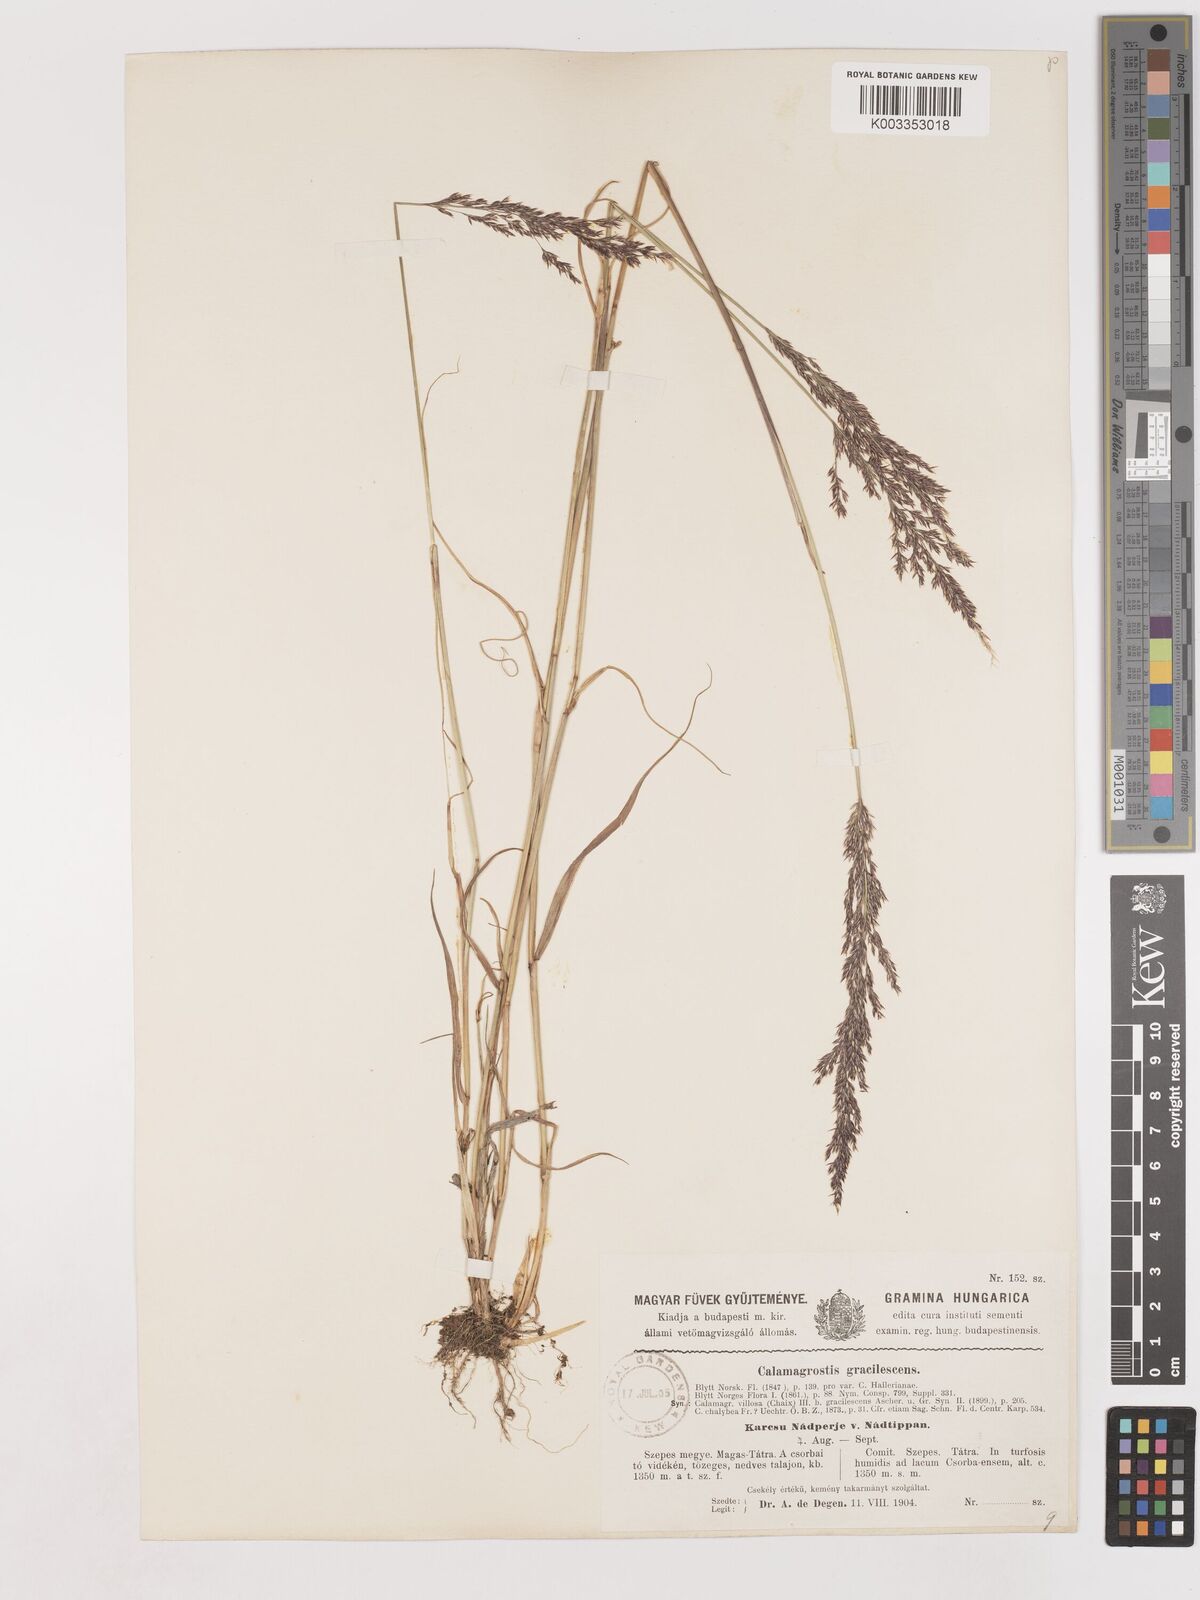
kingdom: Plantae
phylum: Tracheophyta
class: Liliopsida
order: Poales
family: Poaceae
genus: Calamagrostis
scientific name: Calamagrostis canescens
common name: Purple small-reed
